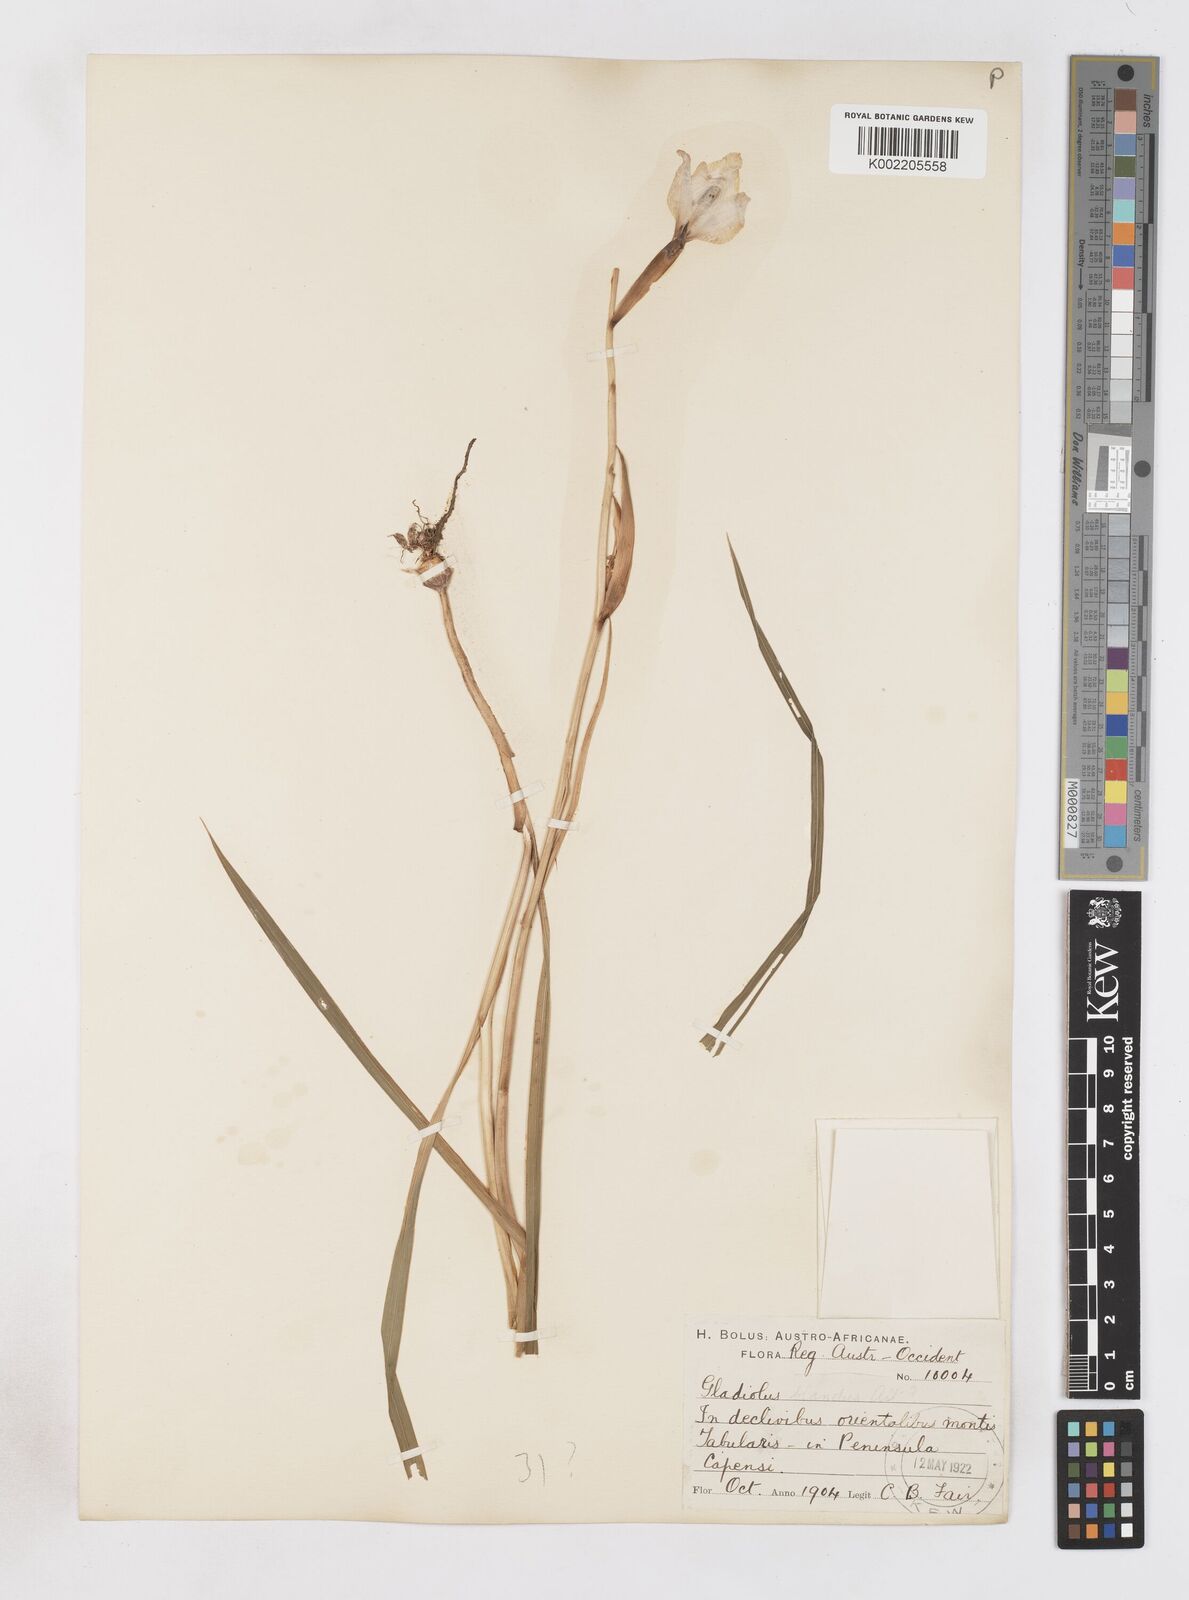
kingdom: Plantae
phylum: Tracheophyta
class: Liliopsida
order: Asparagales
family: Iridaceae
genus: Gladiolus
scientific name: Gladiolus carneus
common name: Painted-lady
